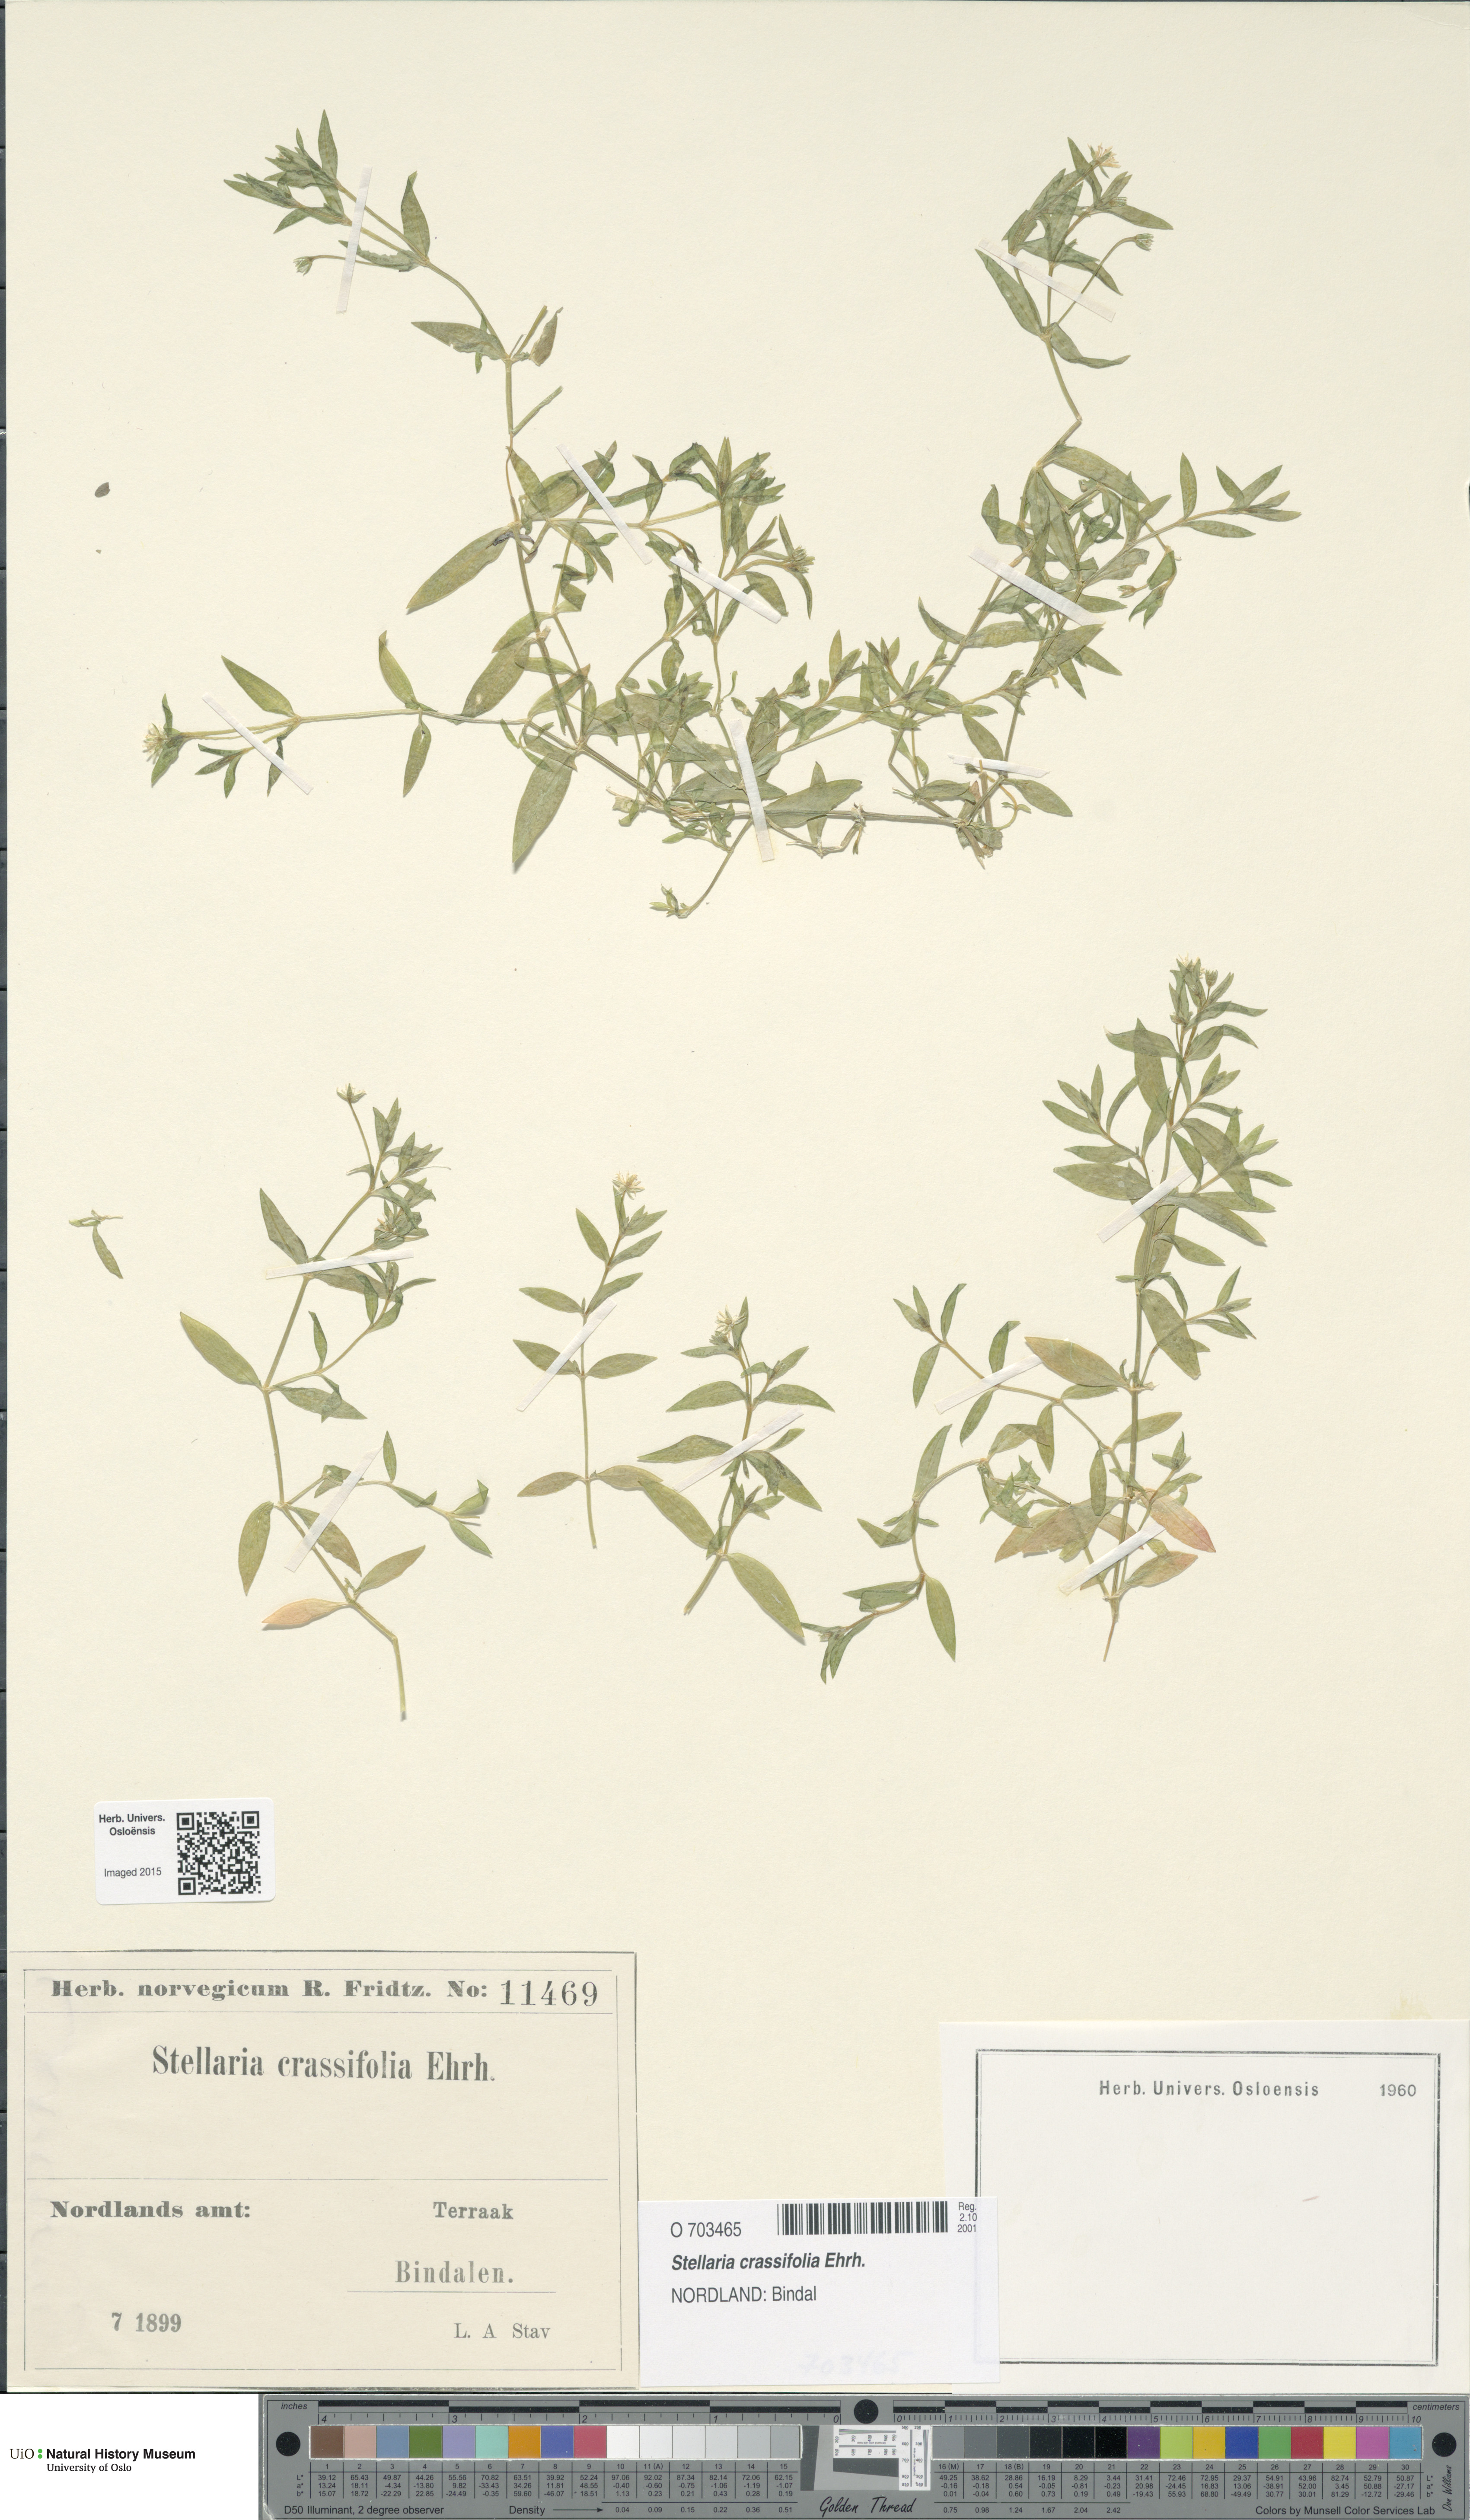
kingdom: Plantae
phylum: Tracheophyta
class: Magnoliopsida
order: Caryophyllales
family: Caryophyllaceae
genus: Stellaria
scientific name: Stellaria crassifolia
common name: Fleshy starwort
